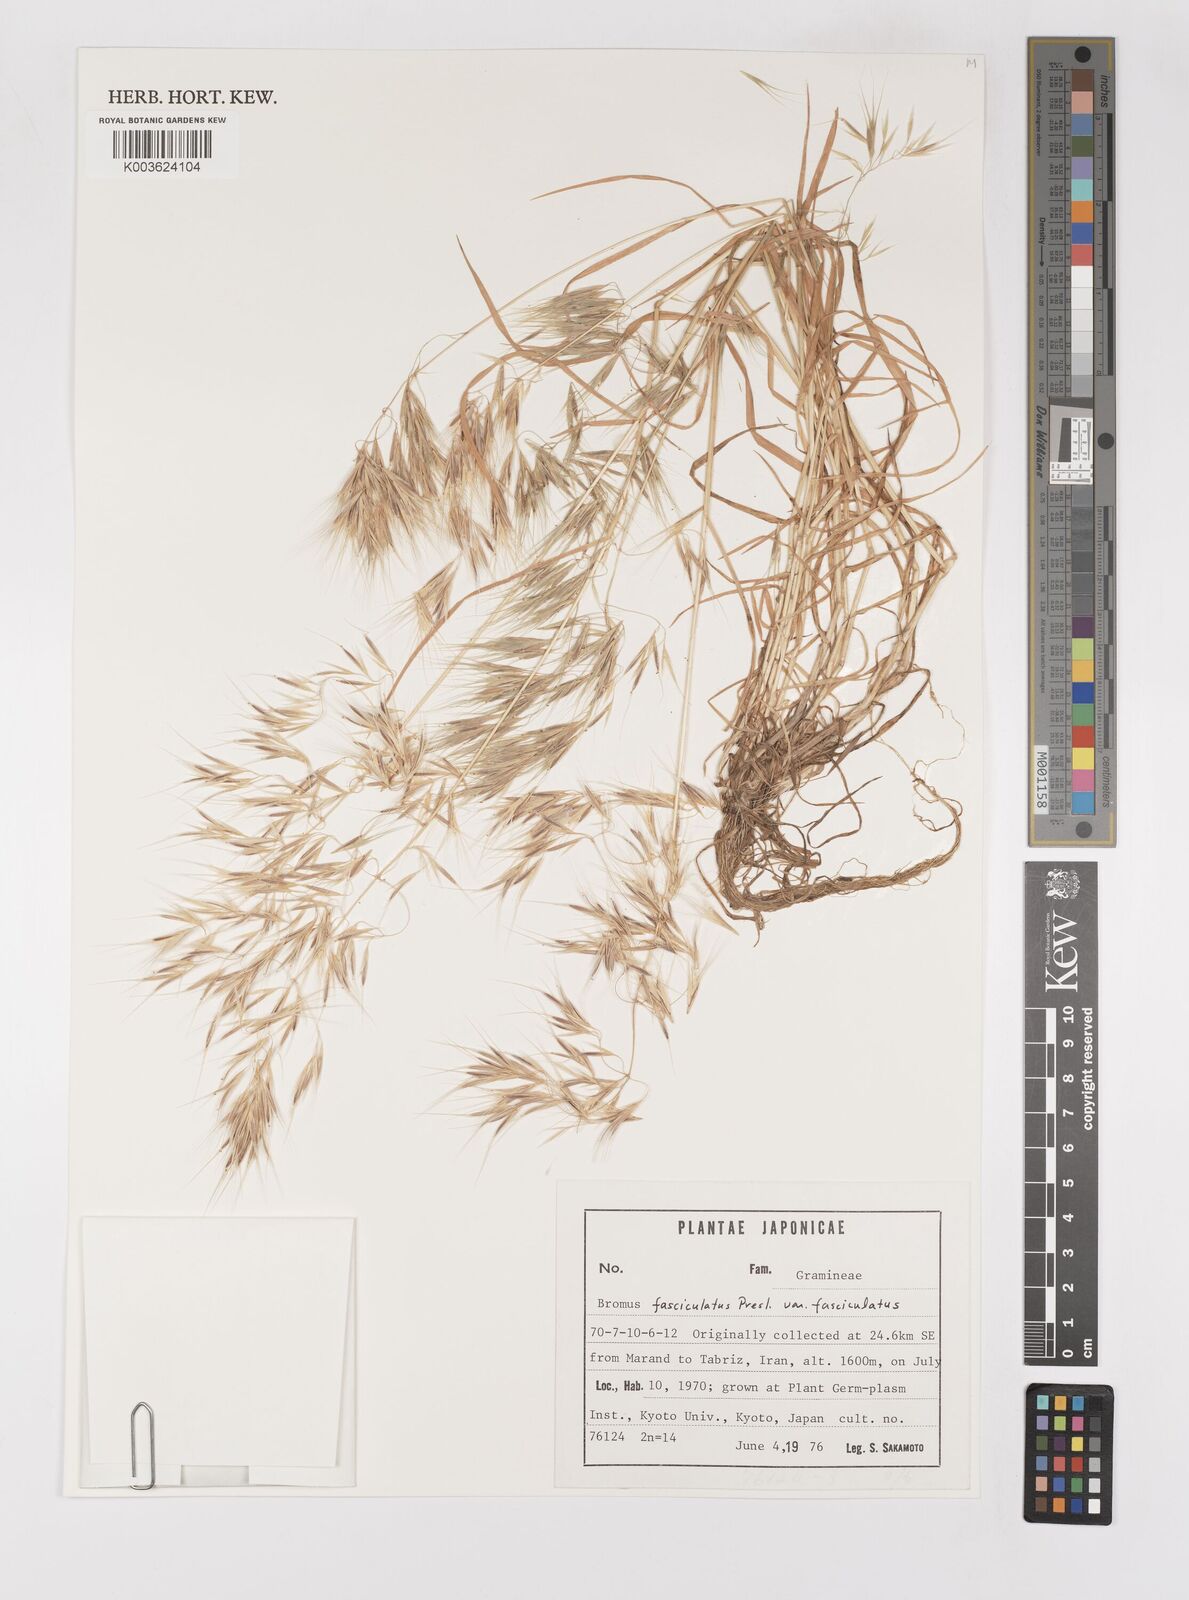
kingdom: Plantae
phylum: Tracheophyta
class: Liliopsida
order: Poales
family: Poaceae
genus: Bromus
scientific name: Bromus fasciculatus
